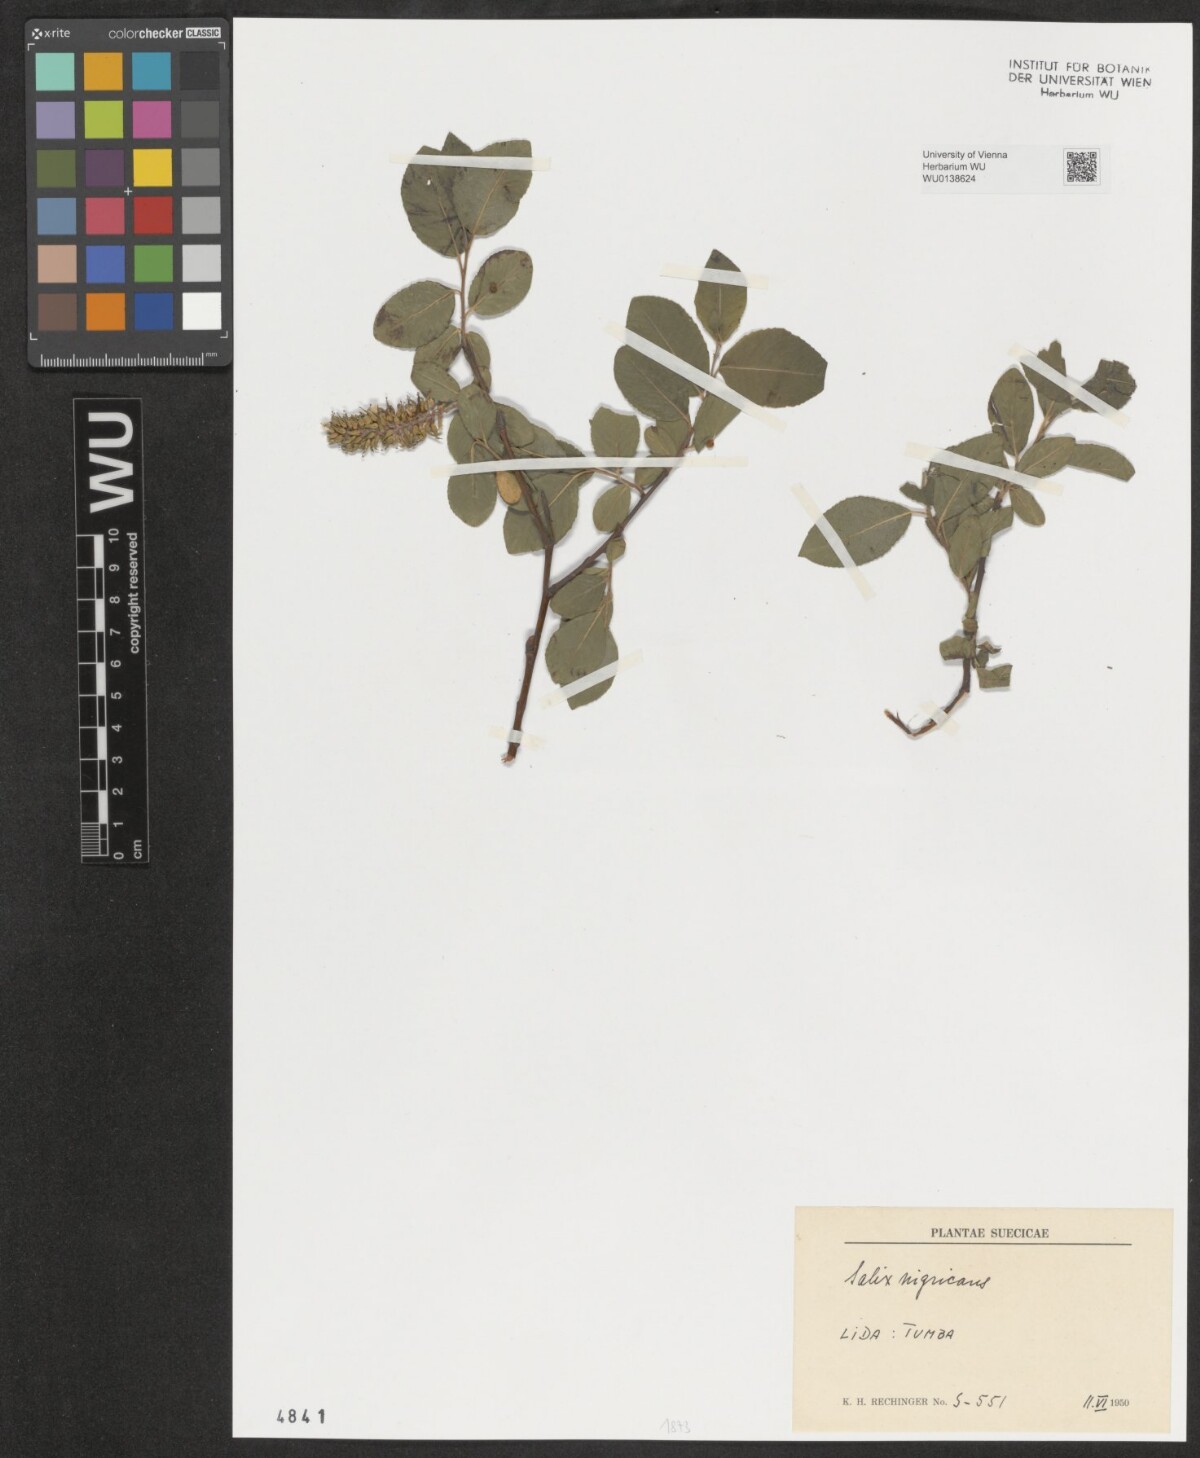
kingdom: Plantae
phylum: Tracheophyta
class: Magnoliopsida
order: Malpighiales
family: Salicaceae
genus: Salix
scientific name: Salix myrsinifolia
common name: Dark-leaved willow
